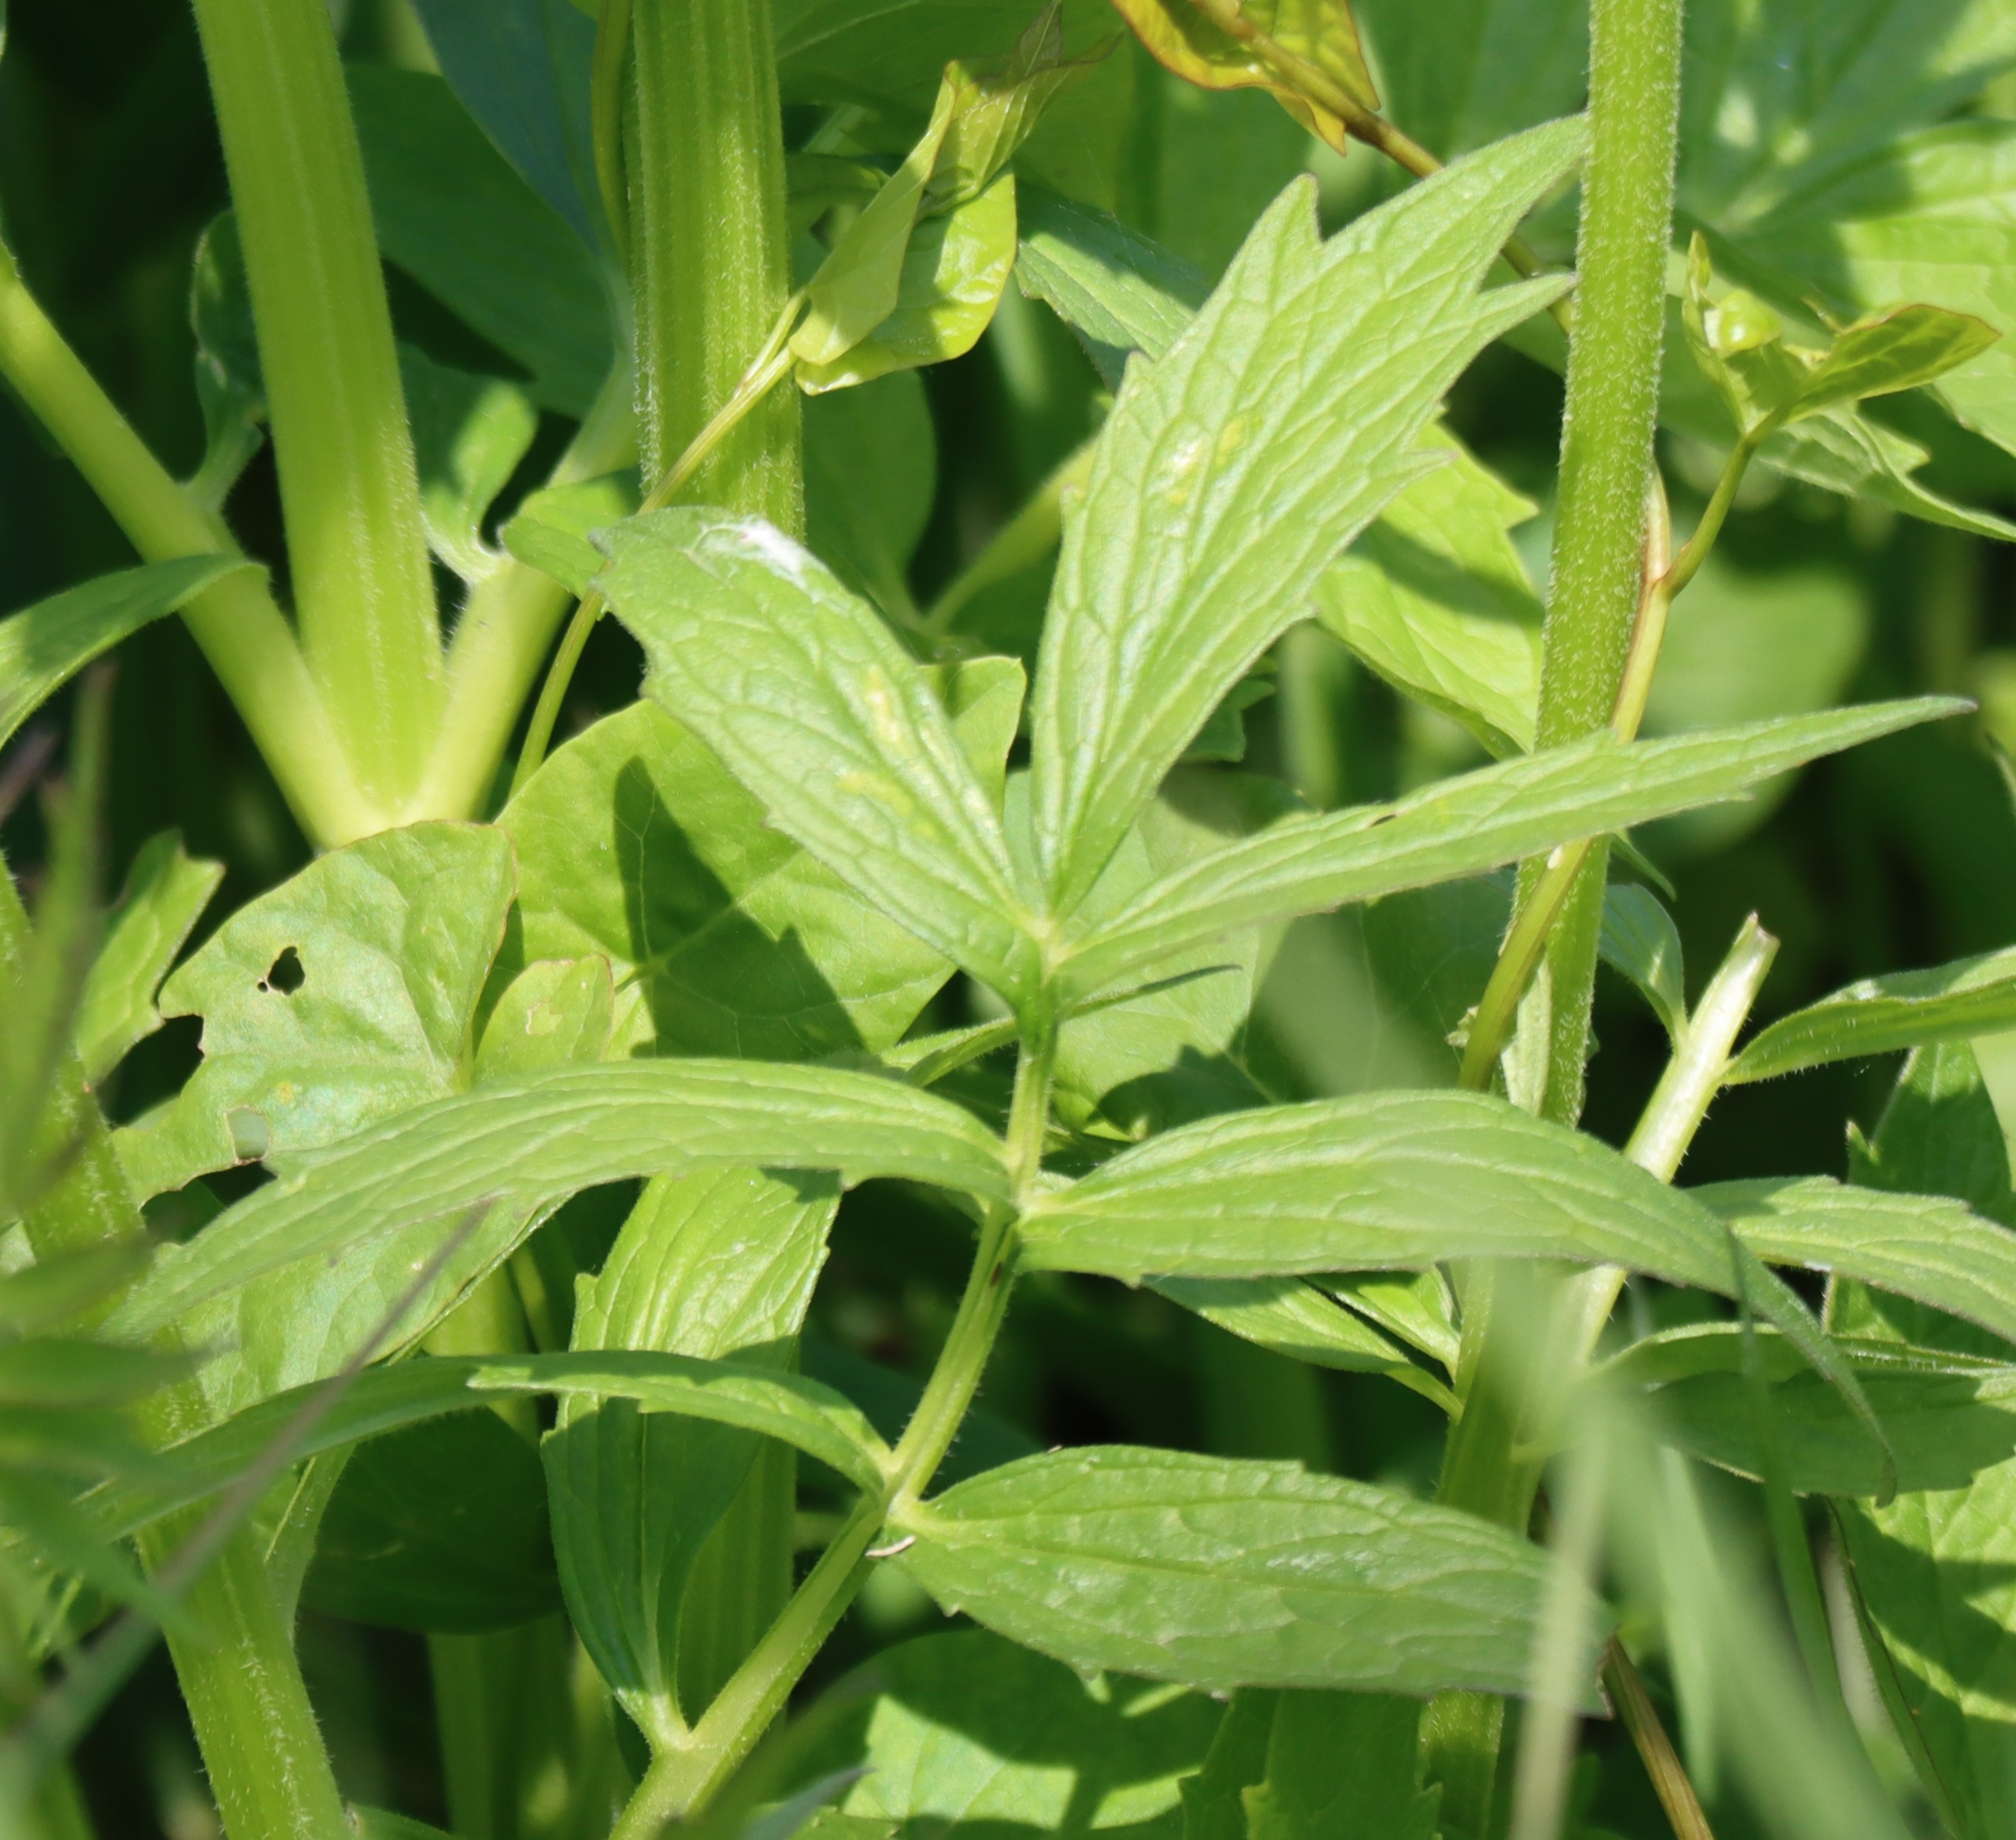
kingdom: Plantae
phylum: Tracheophyta
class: Magnoliopsida
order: Dipsacales
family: Caprifoliaceae
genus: Valeriana
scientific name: Valeriana sambucifolia
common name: Hyldebladet baldrian
